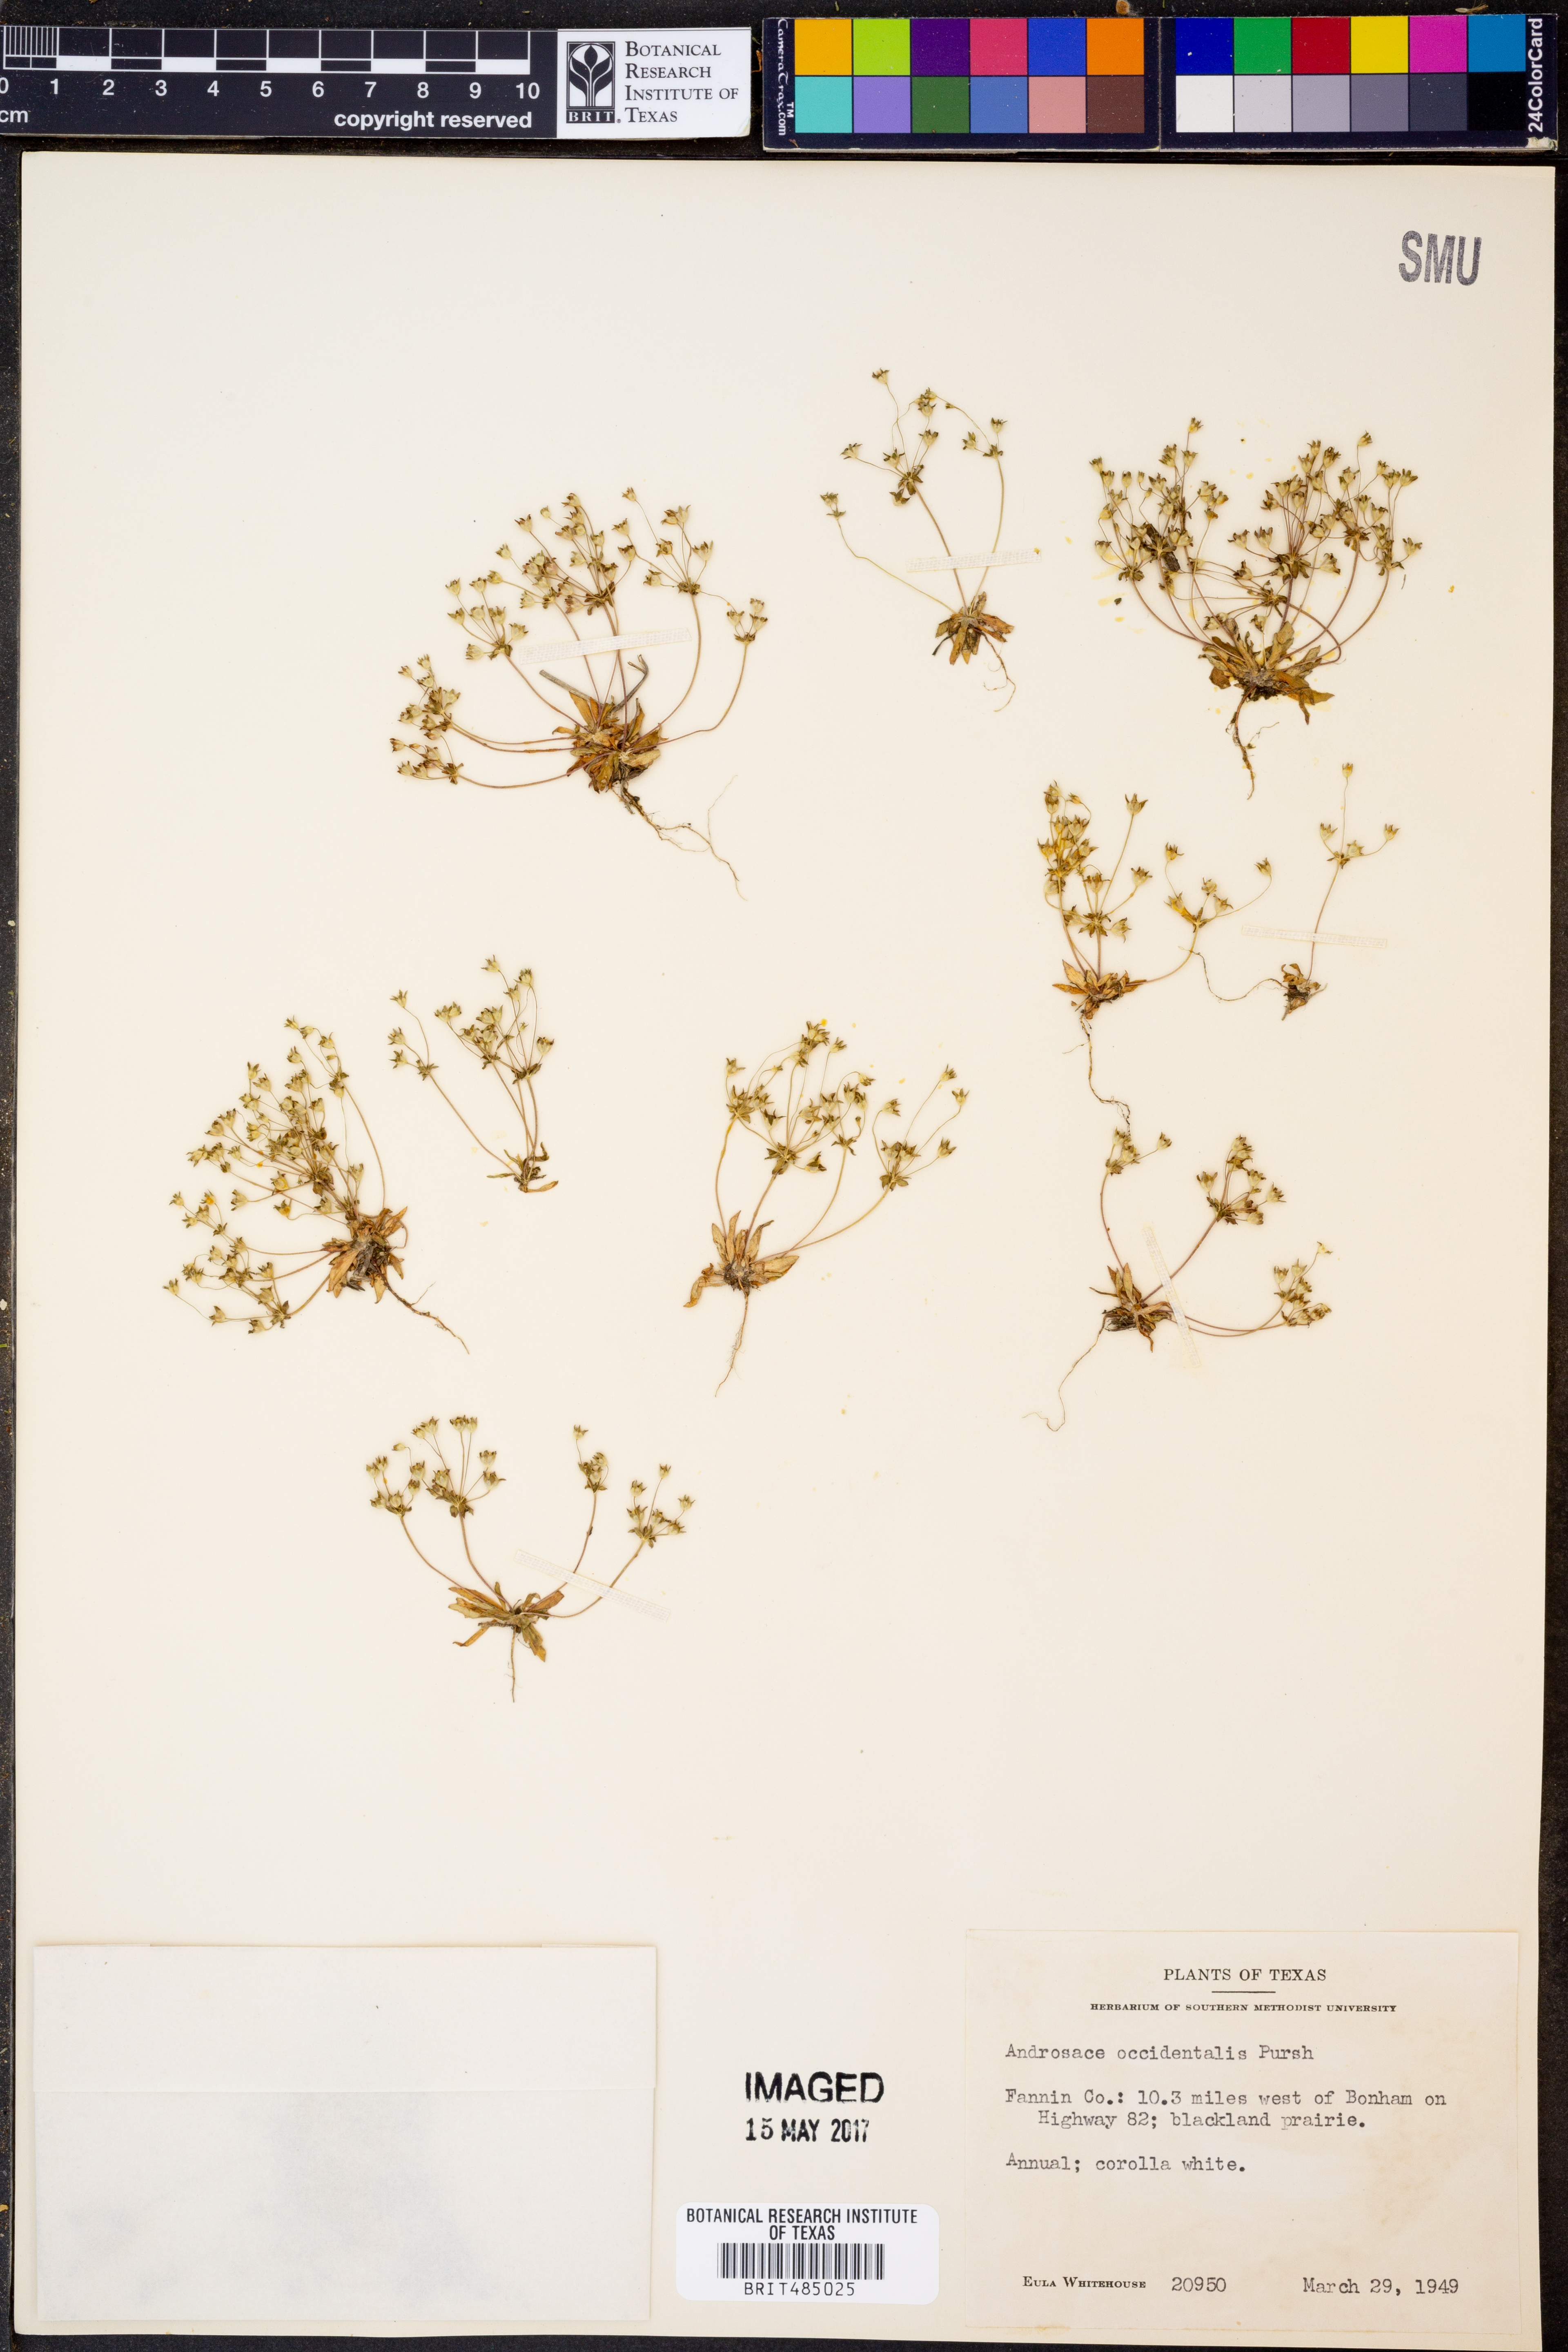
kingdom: Plantae
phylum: Tracheophyta
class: Magnoliopsida
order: Ericales
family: Primulaceae
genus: Androsace
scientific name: Androsace occidentalis
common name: West rock-jasmine
